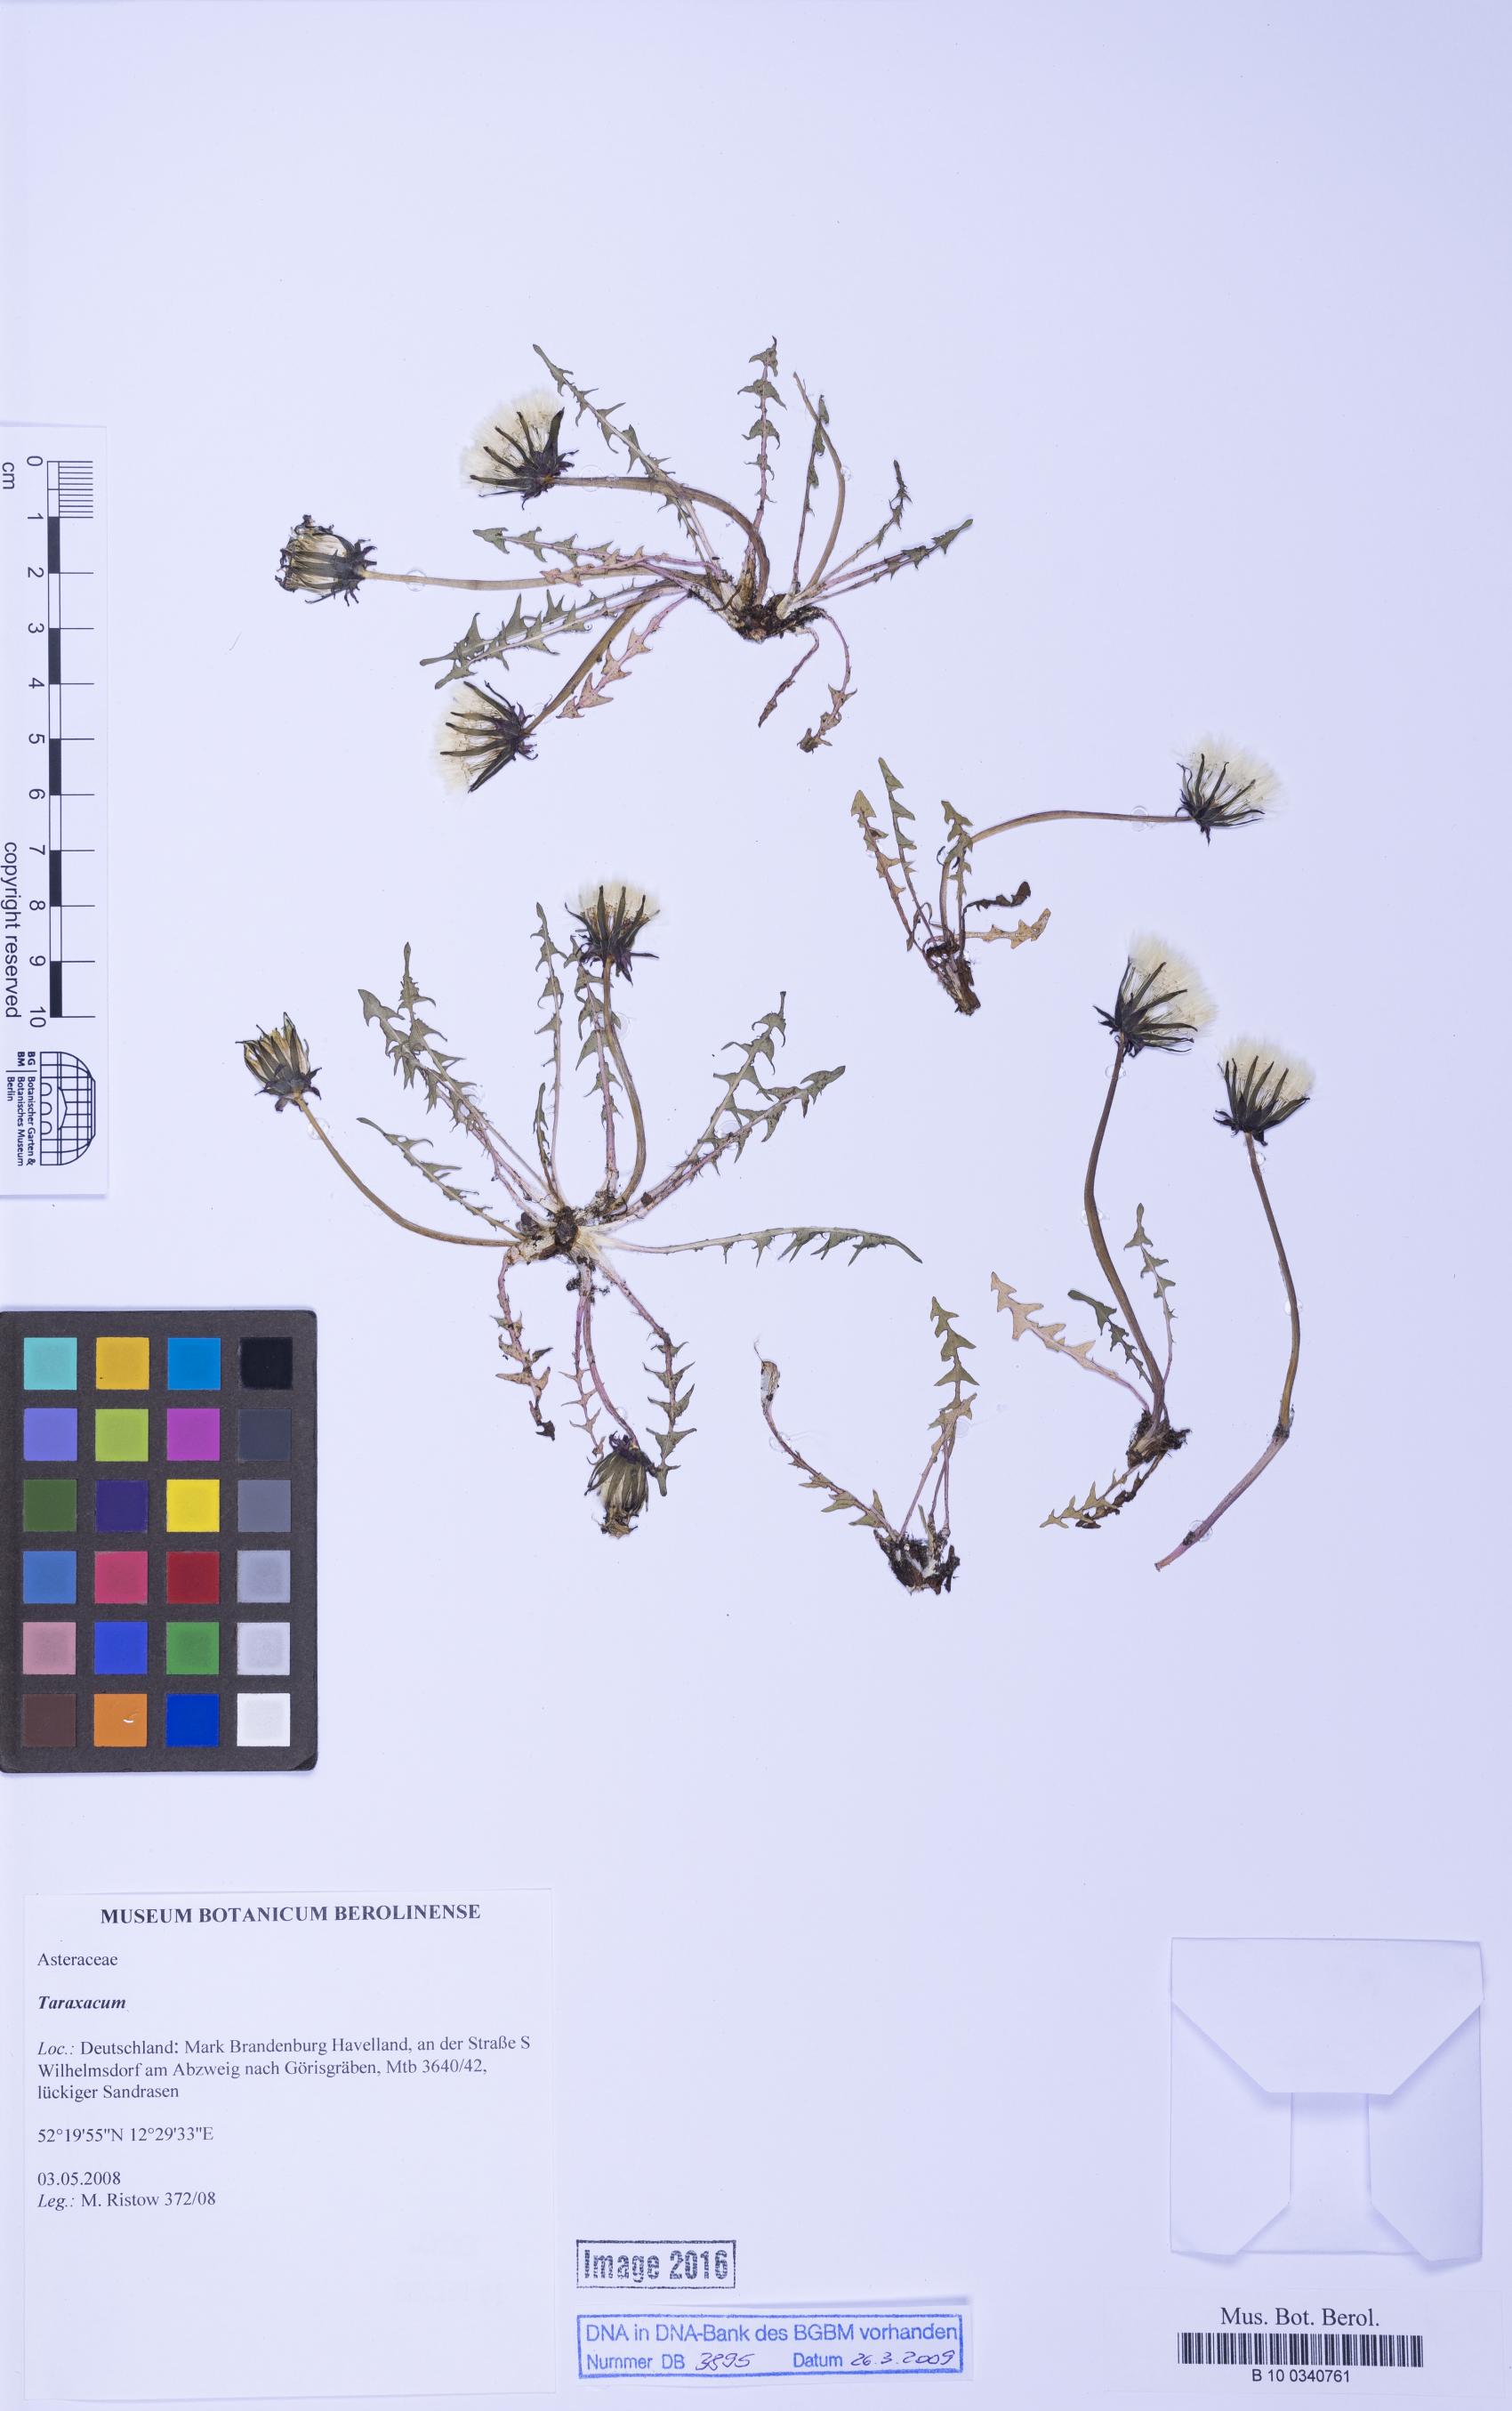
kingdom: Plantae
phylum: Tracheophyta
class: Magnoliopsida
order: Asterales
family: Asteraceae
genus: Taraxacum
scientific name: Taraxacum
